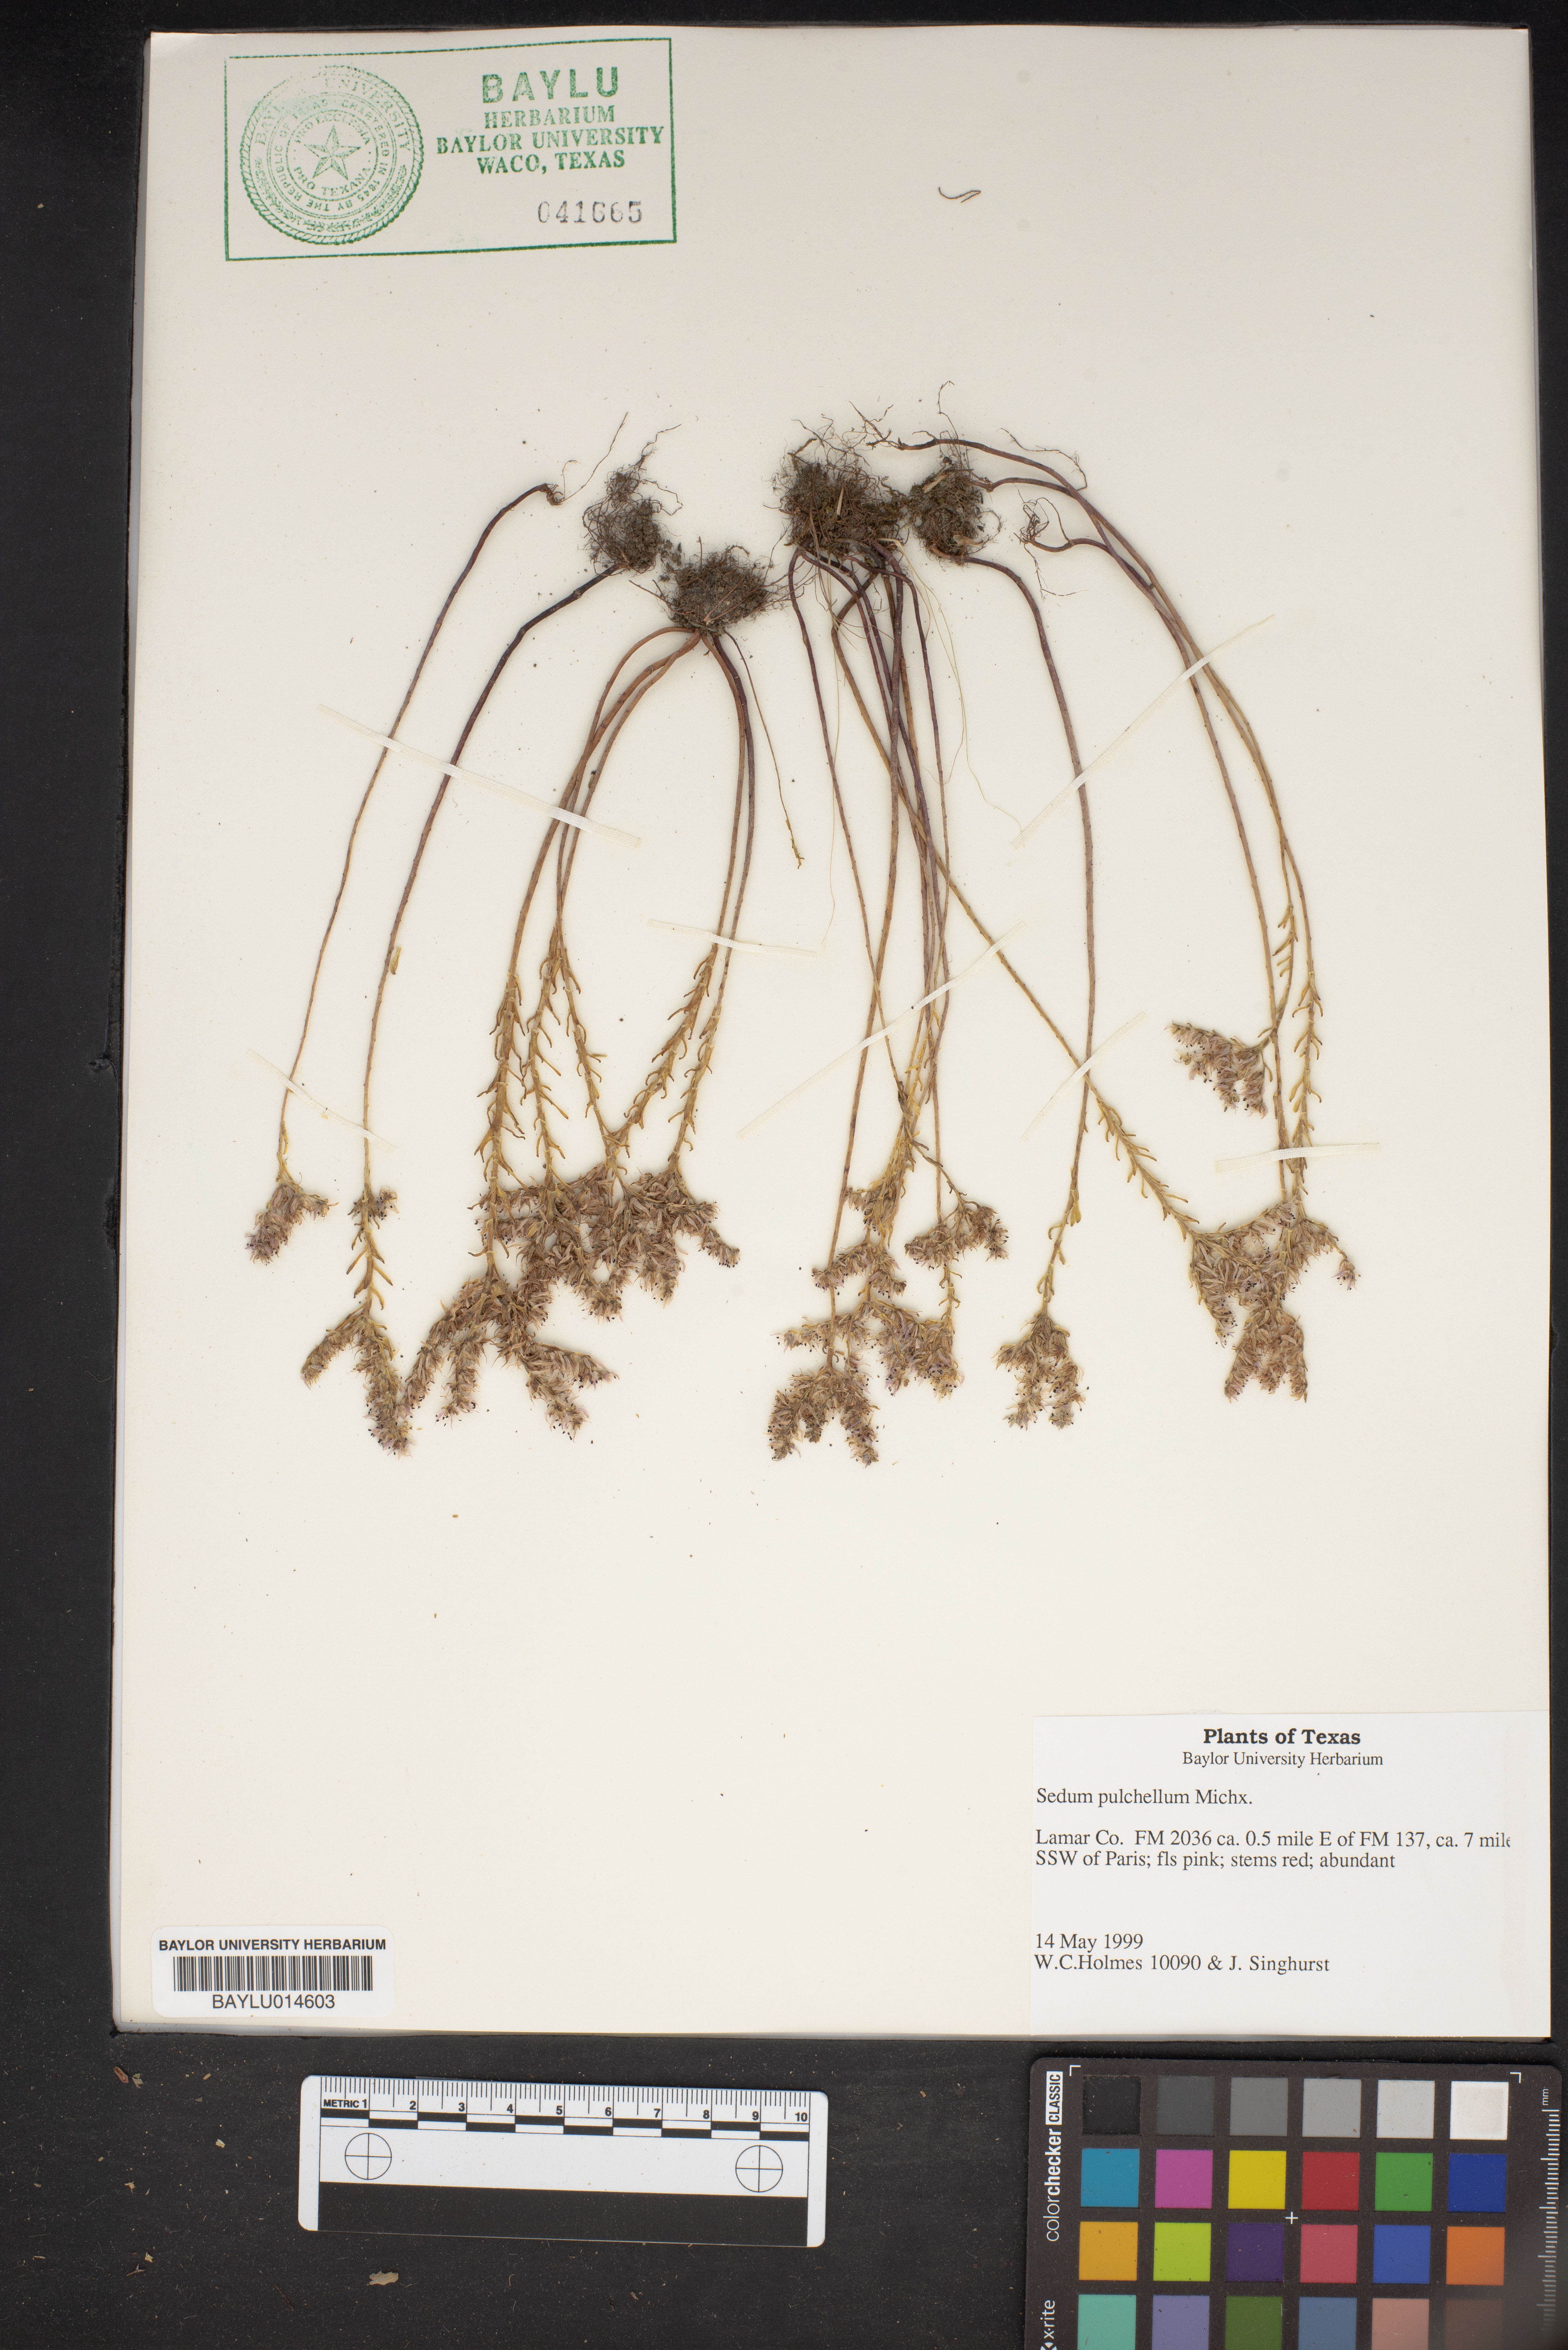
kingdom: Plantae
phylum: Tracheophyta
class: Magnoliopsida
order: Saxifragales
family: Crassulaceae
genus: Sedum
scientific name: Sedum pulchellum
